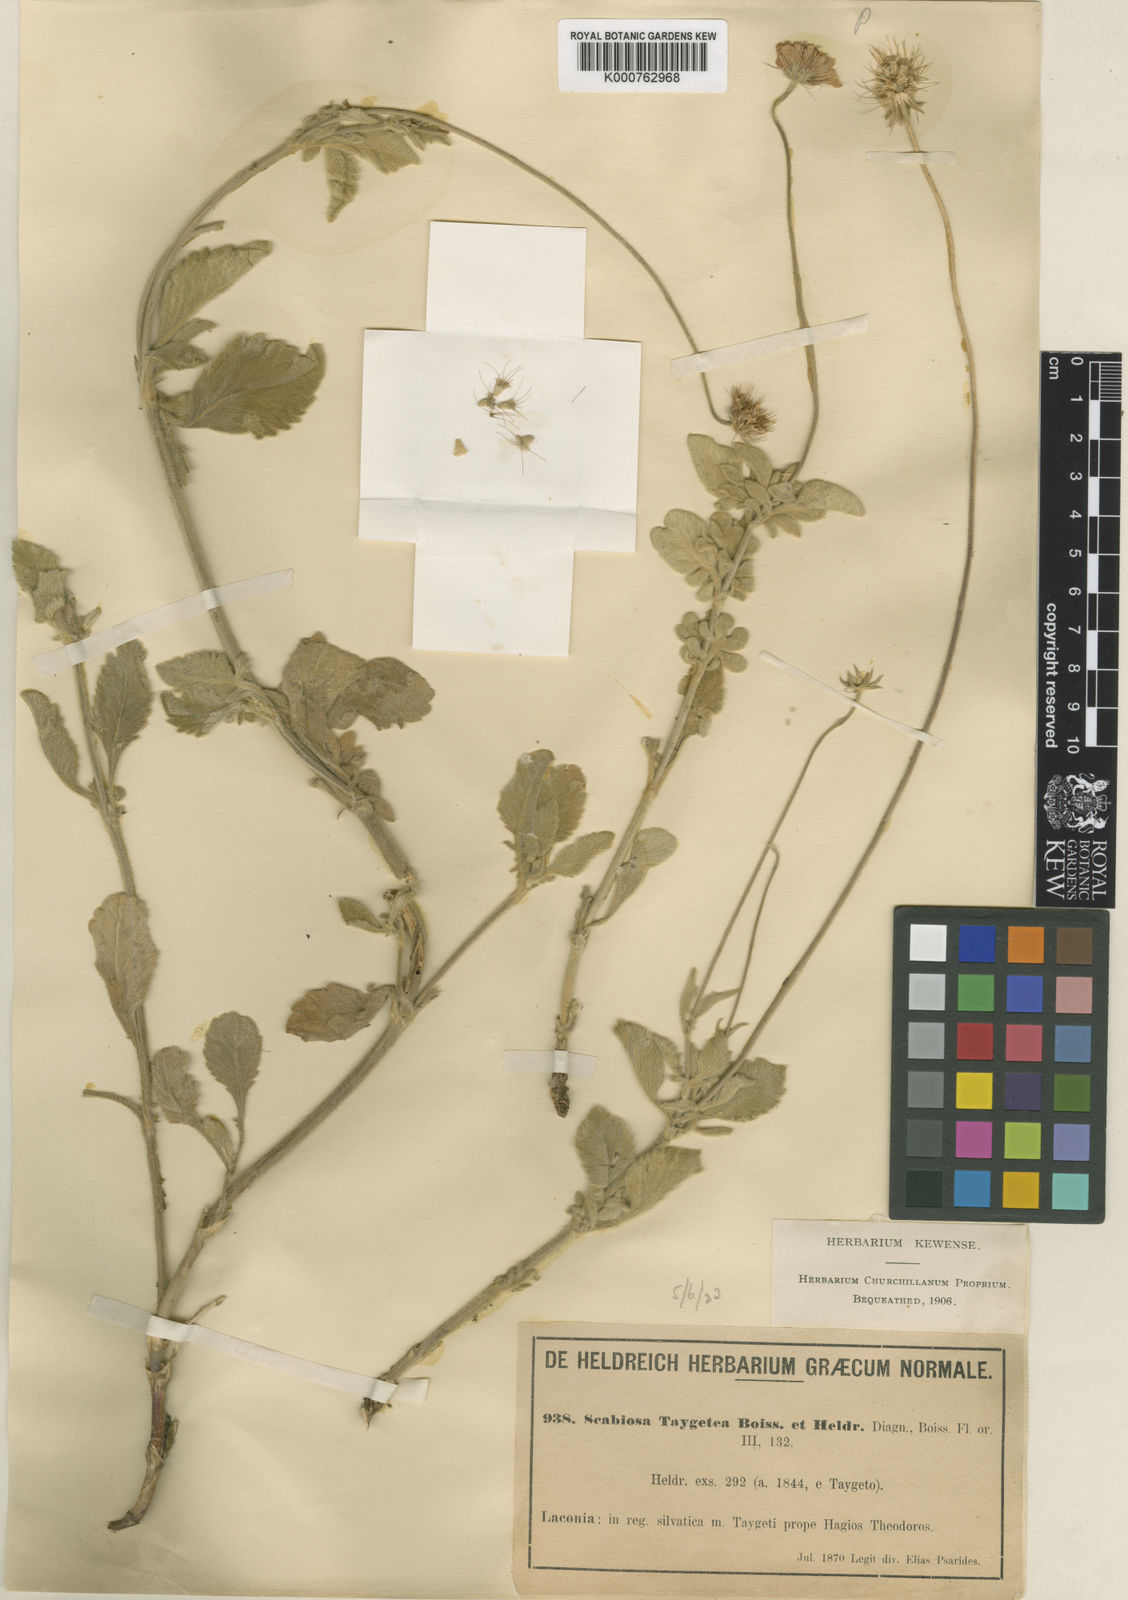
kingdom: Plantae
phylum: Tracheophyta
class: Magnoliopsida
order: Dipsacales
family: Caprifoliaceae
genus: Scabiosa
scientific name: Scabiosa taygetea
